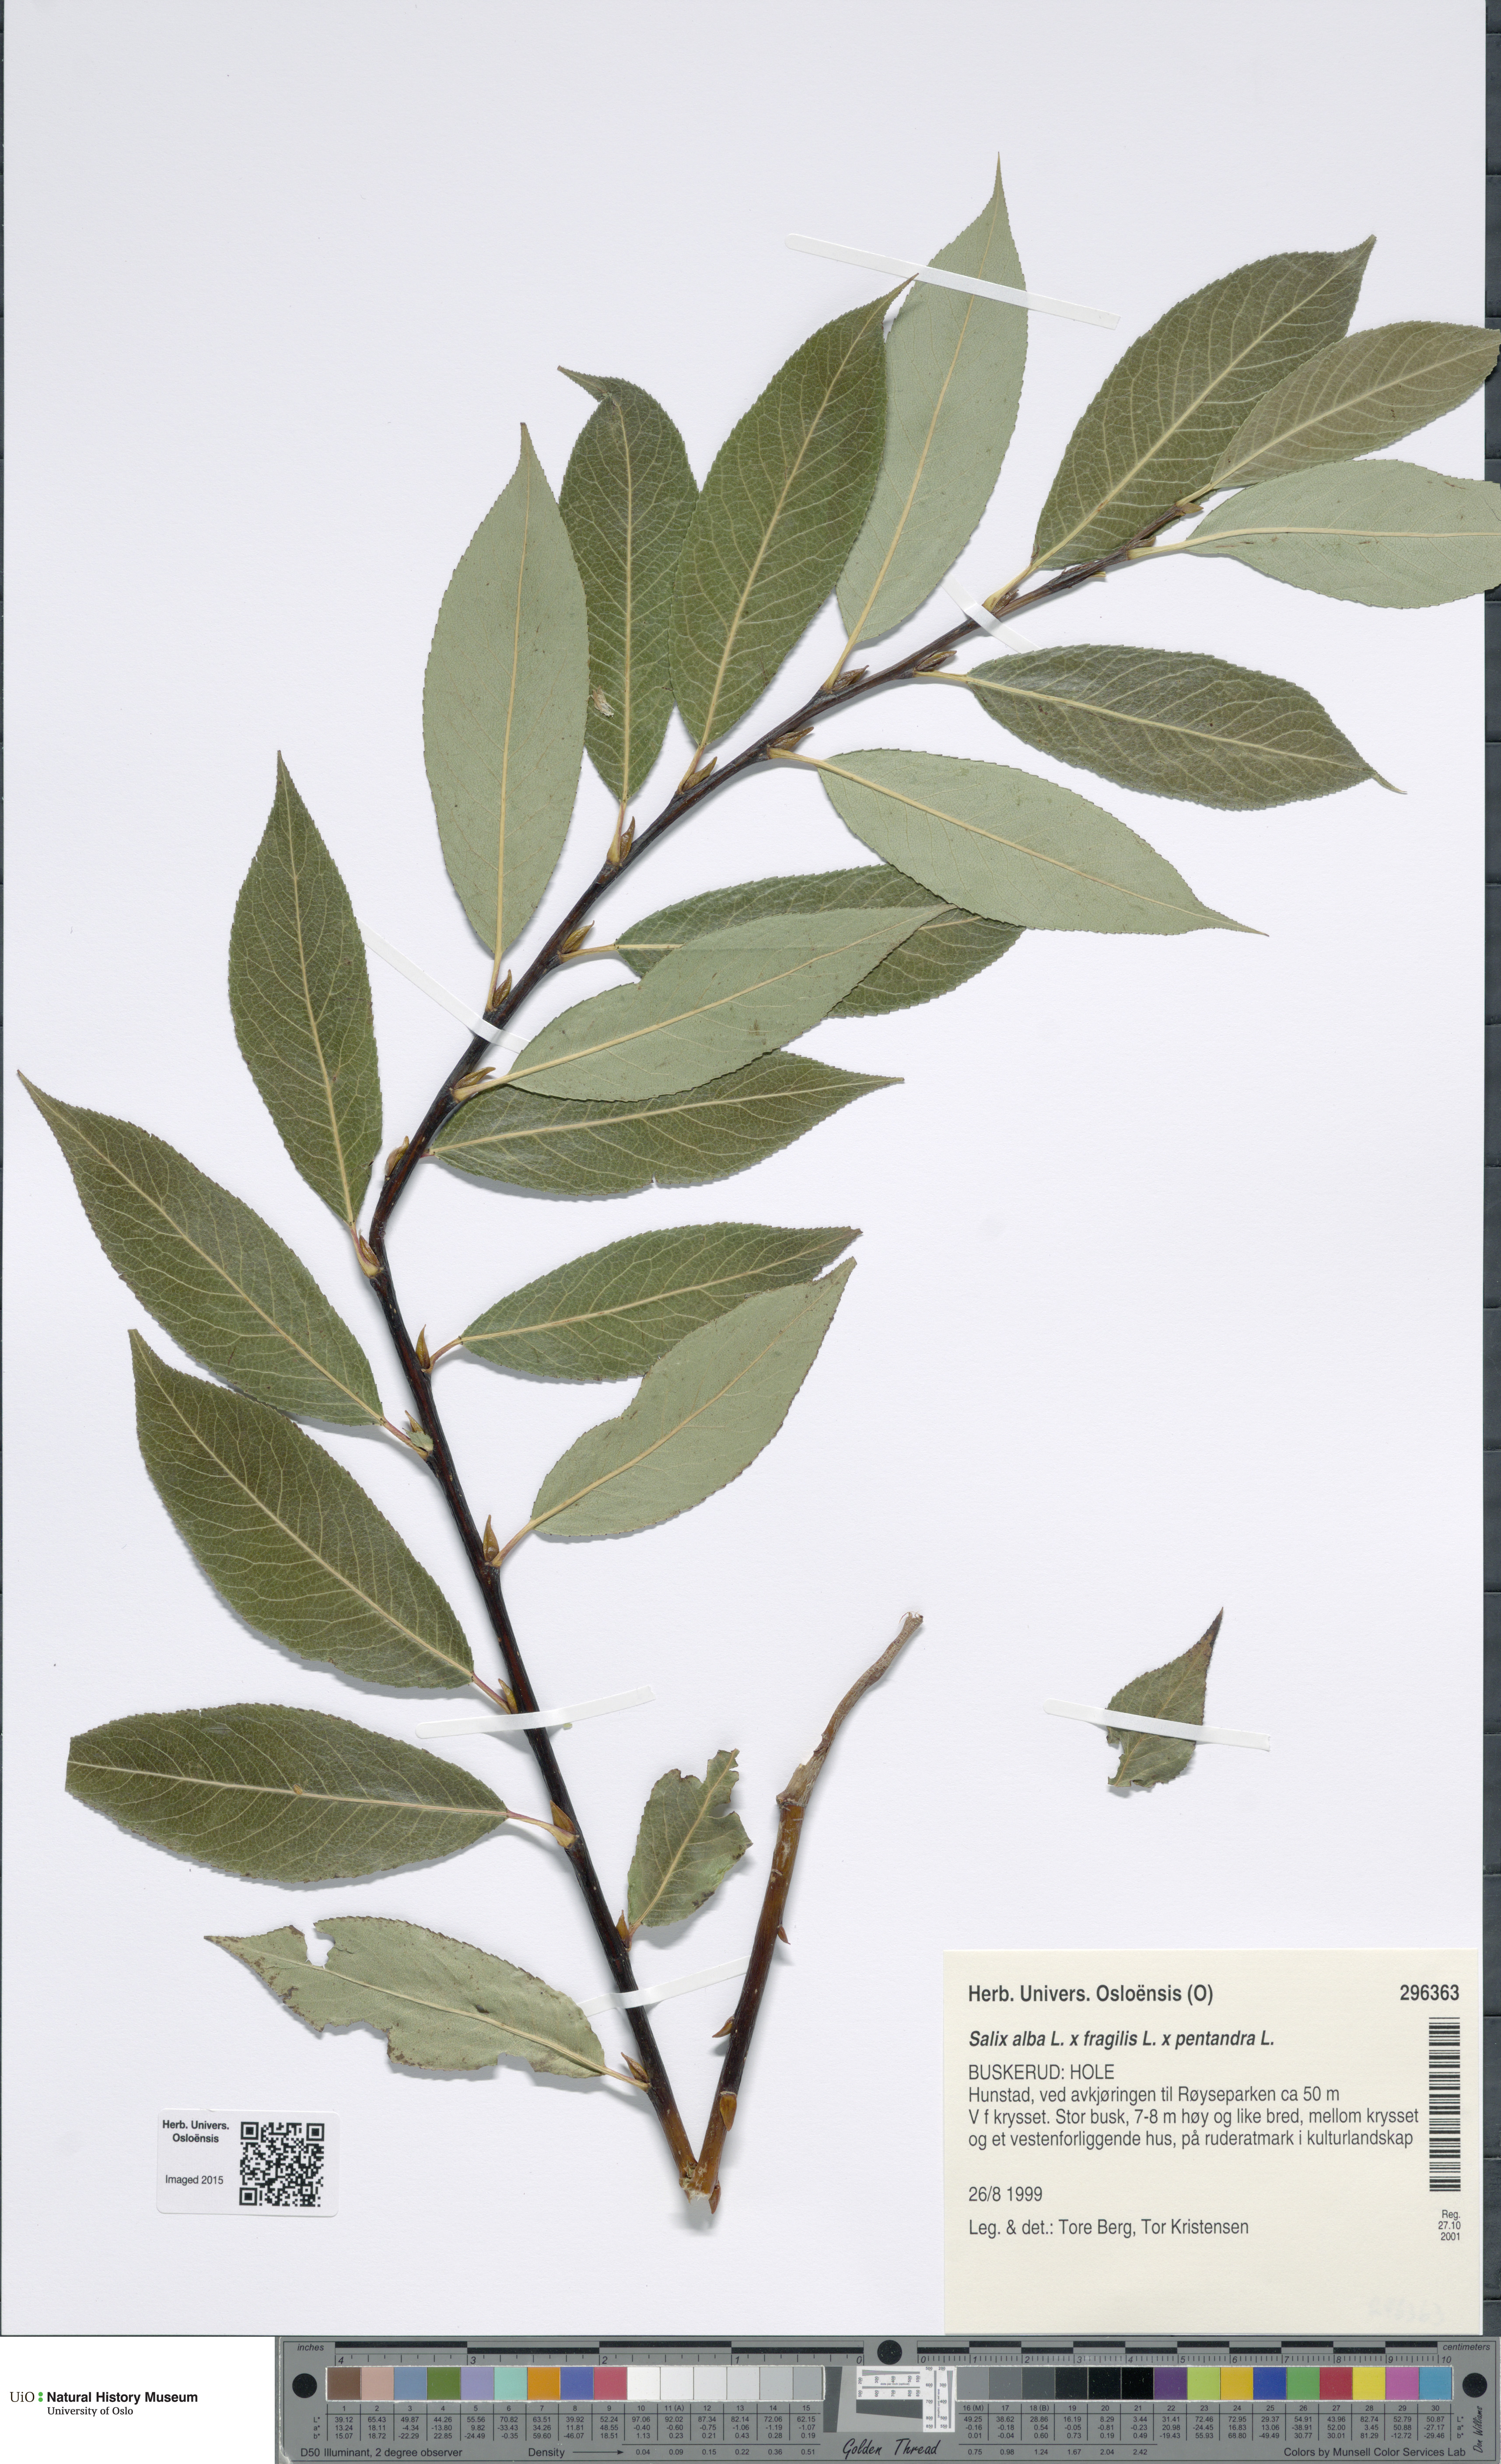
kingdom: Plantae
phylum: Tracheophyta
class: Magnoliopsida
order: Malpighiales
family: Salicaceae
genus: Salix
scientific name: Salix
